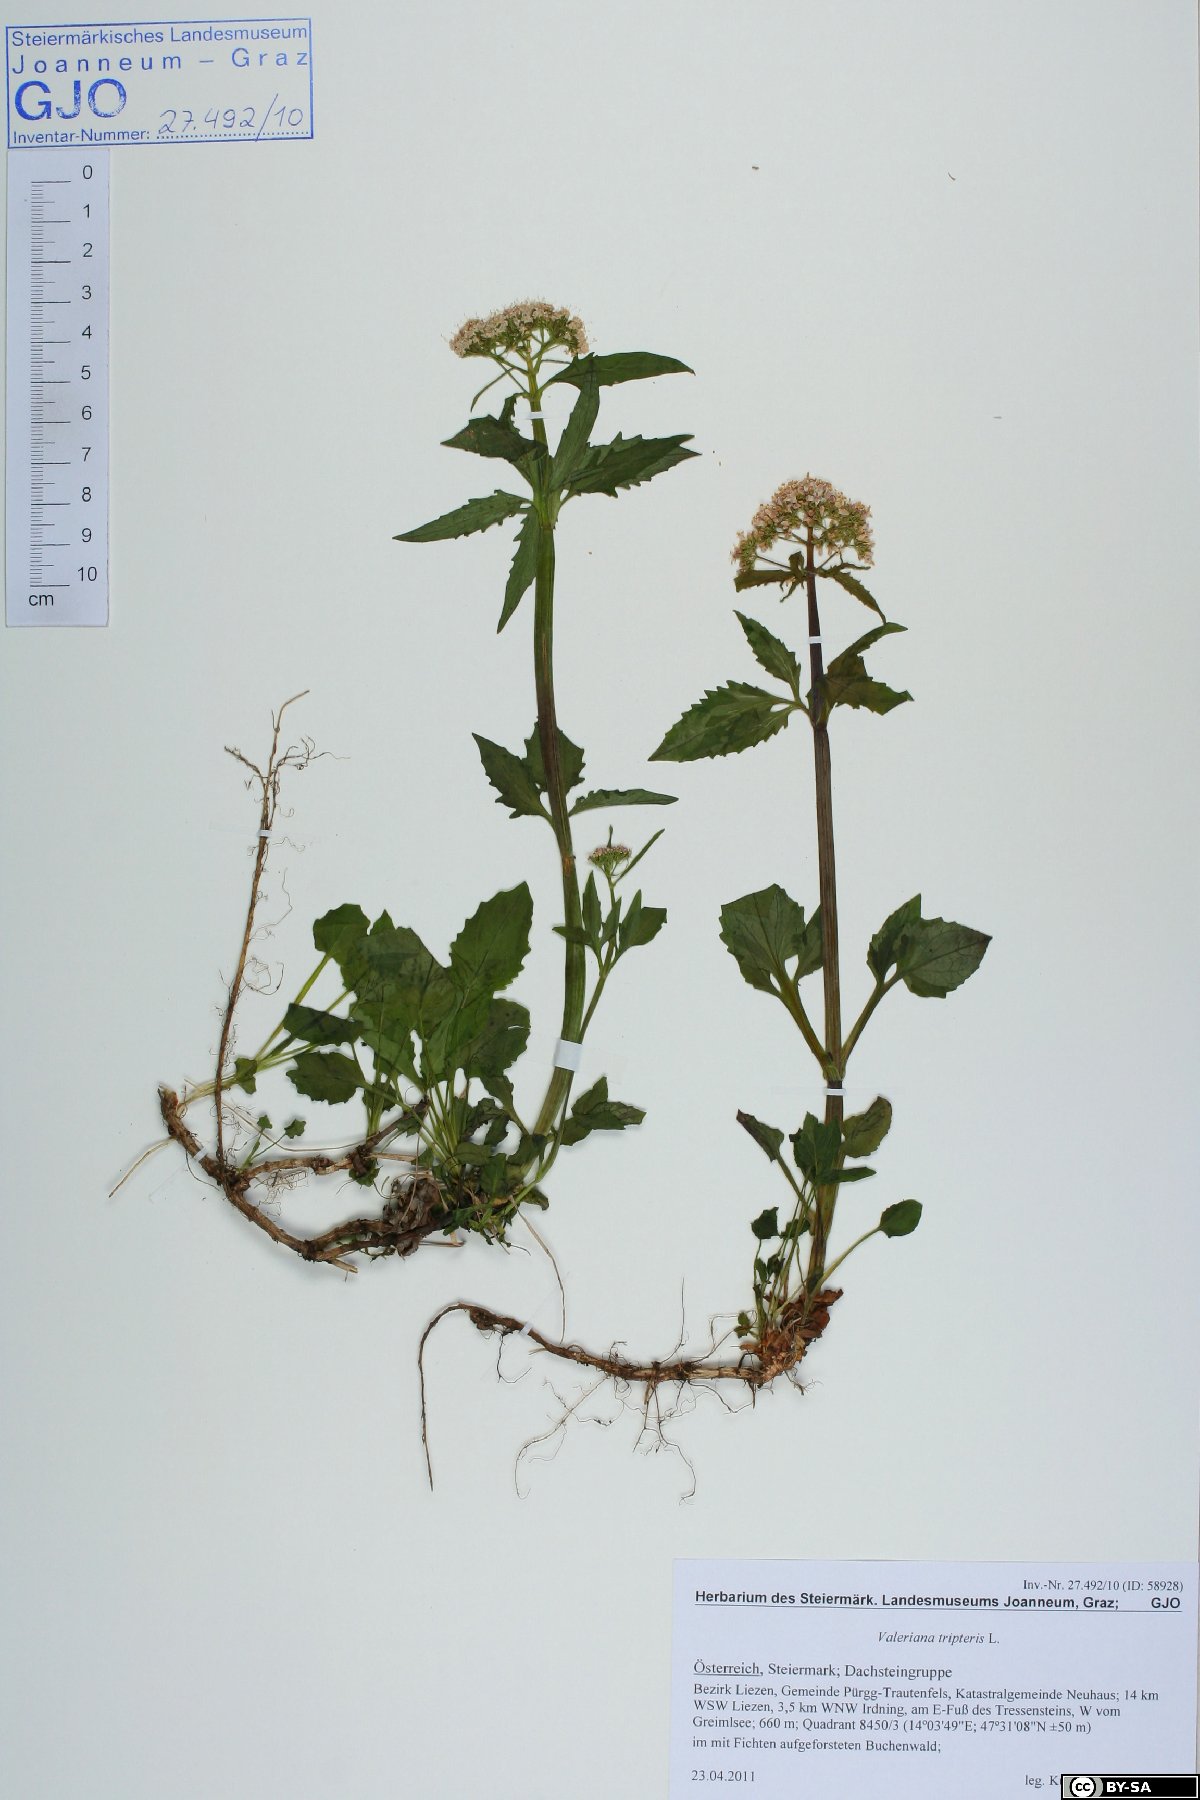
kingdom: Plantae
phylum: Tracheophyta
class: Magnoliopsida
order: Dipsacales
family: Caprifoliaceae
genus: Valeriana
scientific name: Valeriana tripteris
